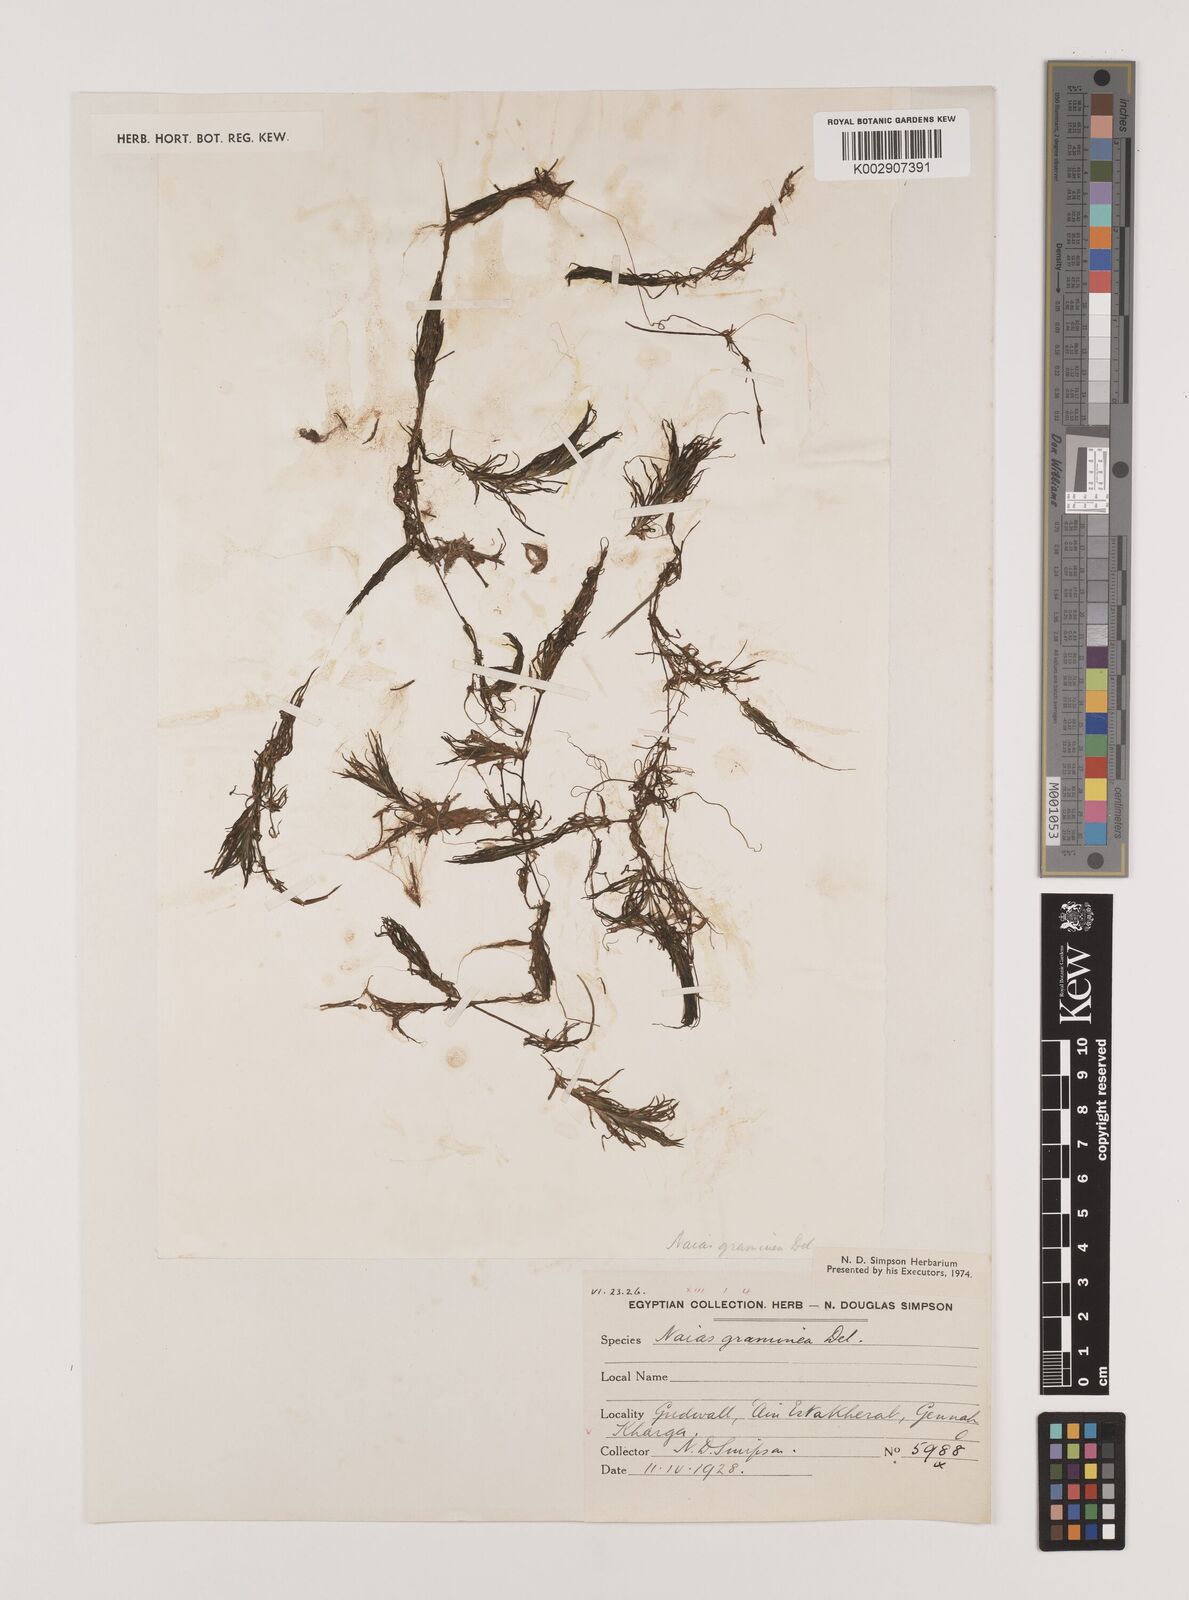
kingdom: Plantae
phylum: Tracheophyta
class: Liliopsida
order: Alismatales
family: Hydrocharitaceae
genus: Najas
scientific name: Najas graminea
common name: Ricefield waternymph
